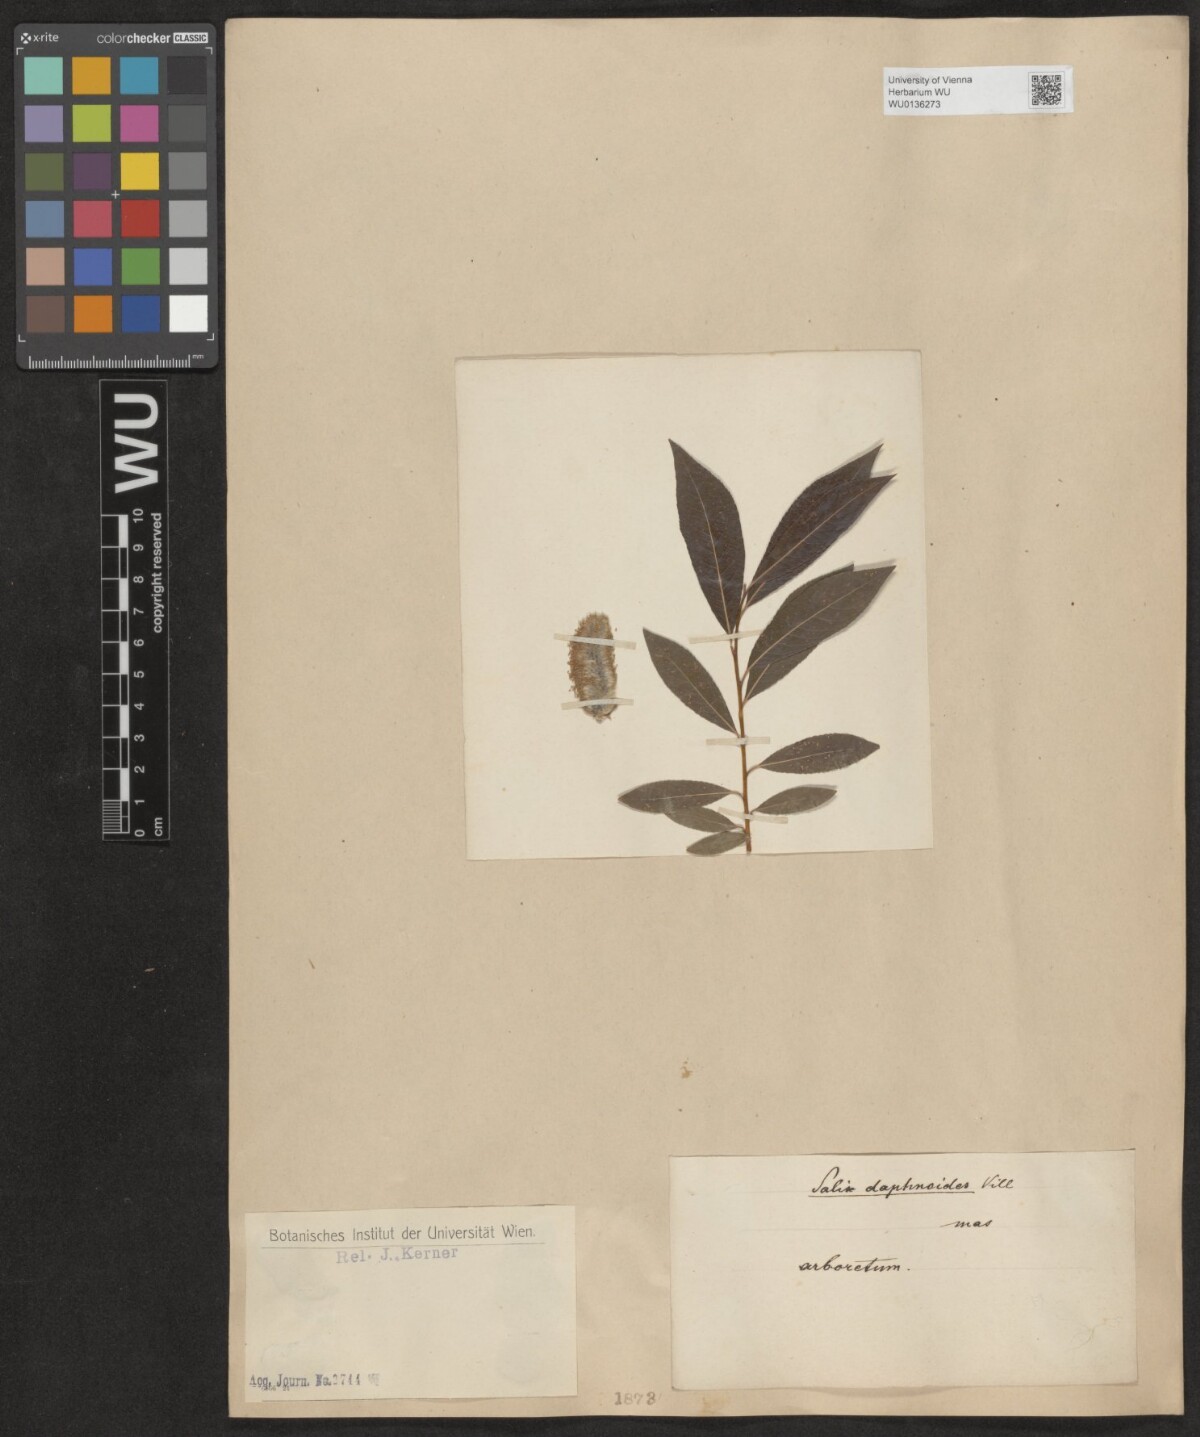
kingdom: Plantae
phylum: Tracheophyta
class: Magnoliopsida
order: Malpighiales
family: Salicaceae
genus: Salix
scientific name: Salix daphnoides
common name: European violet-willow
